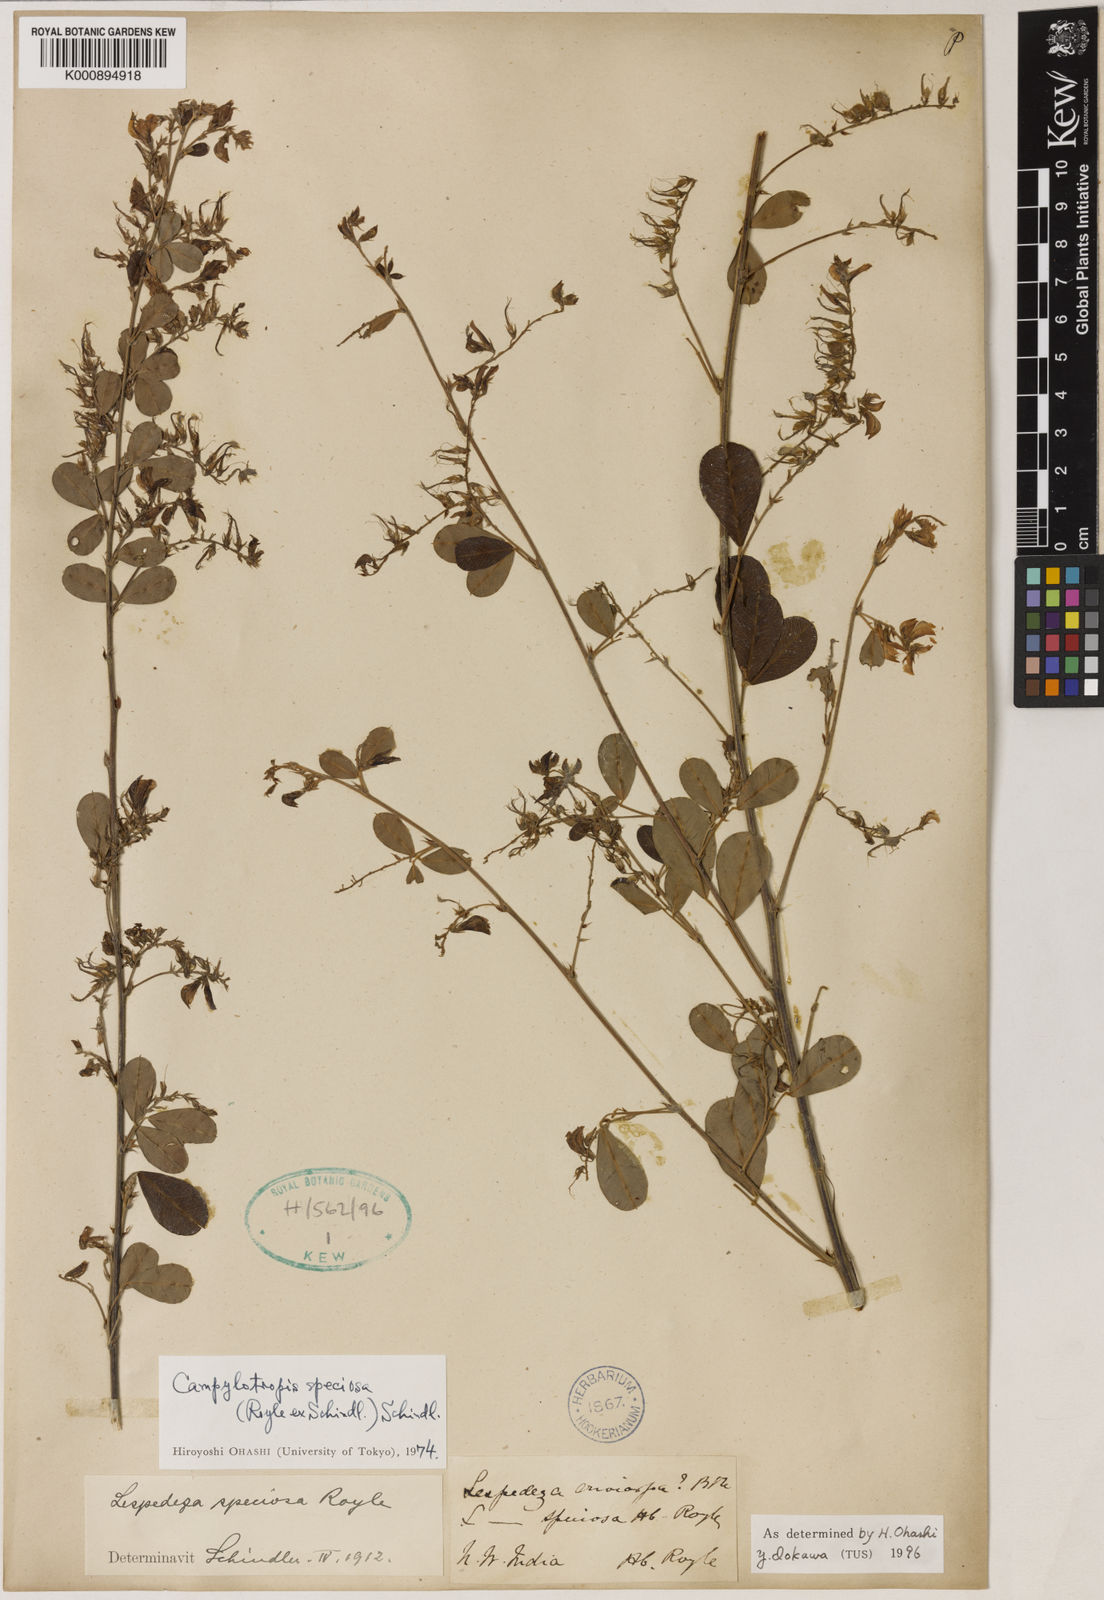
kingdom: Plantae
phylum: Tracheophyta
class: Magnoliopsida
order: Fabales
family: Fabaceae
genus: Campylotropis
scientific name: Campylotropis speciosa
